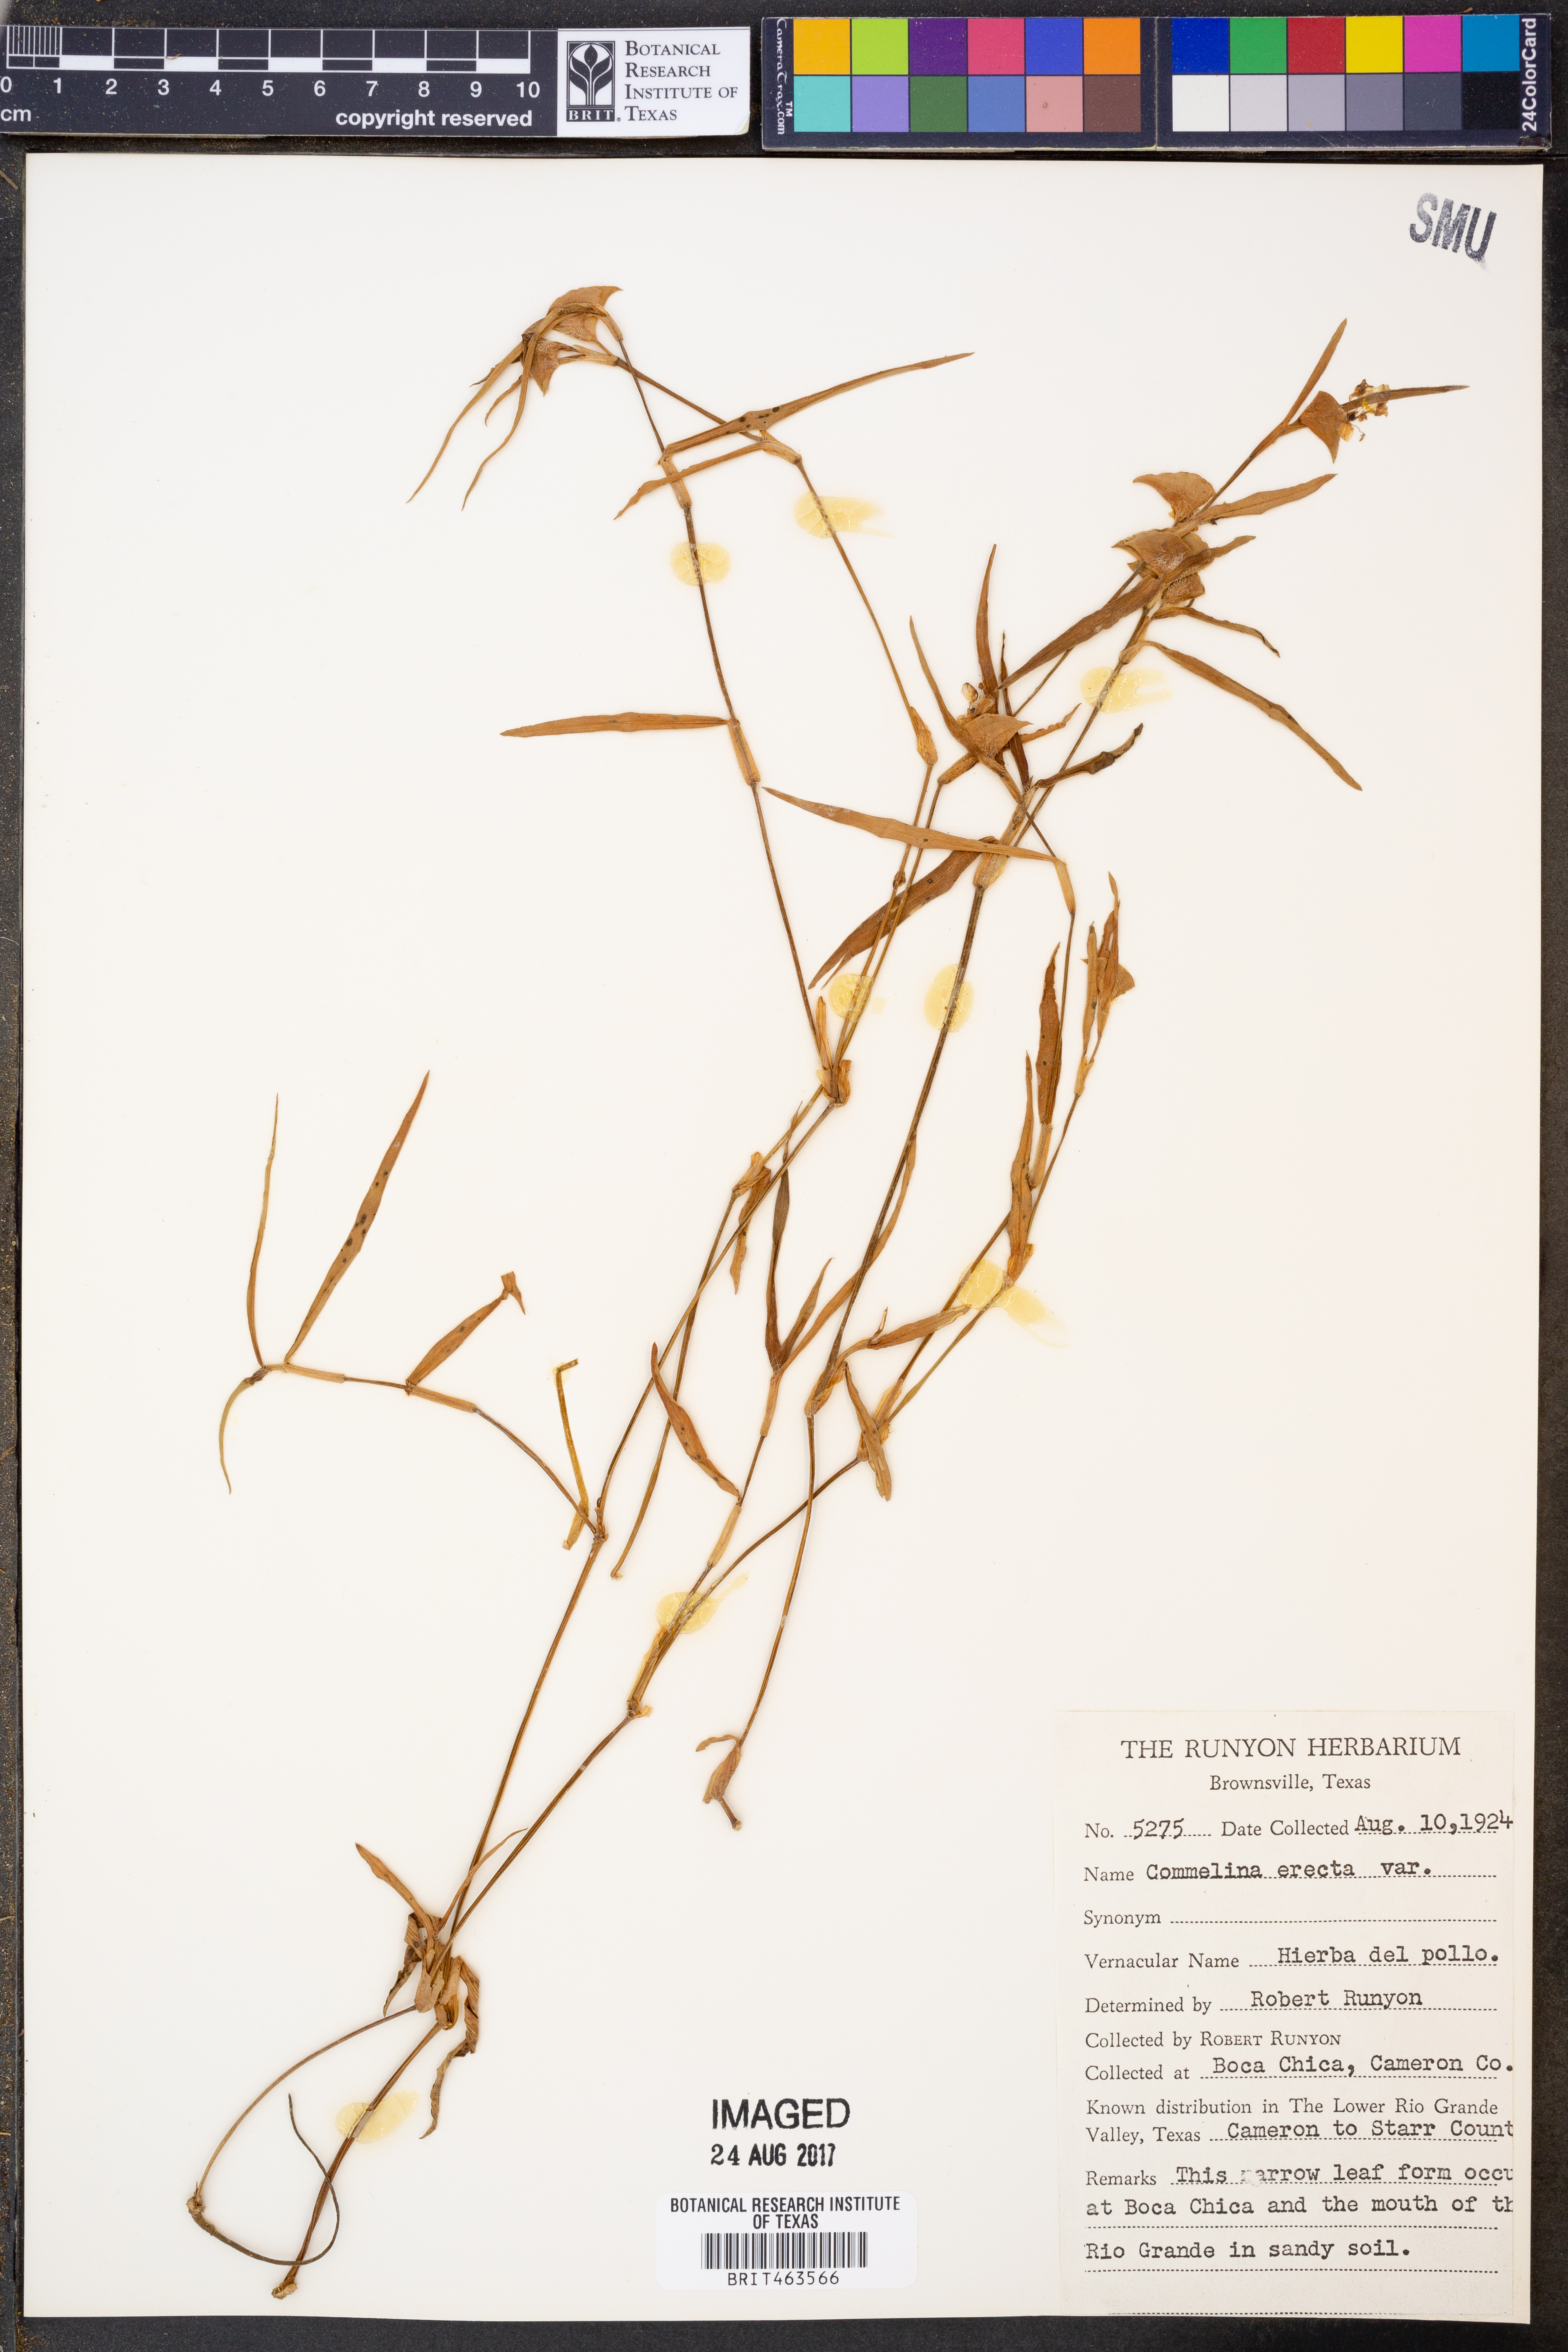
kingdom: Plantae
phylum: Tracheophyta
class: Liliopsida
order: Commelinales
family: Commelinaceae
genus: Commelina
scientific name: Commelina erecta
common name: Blousel blommetjie
